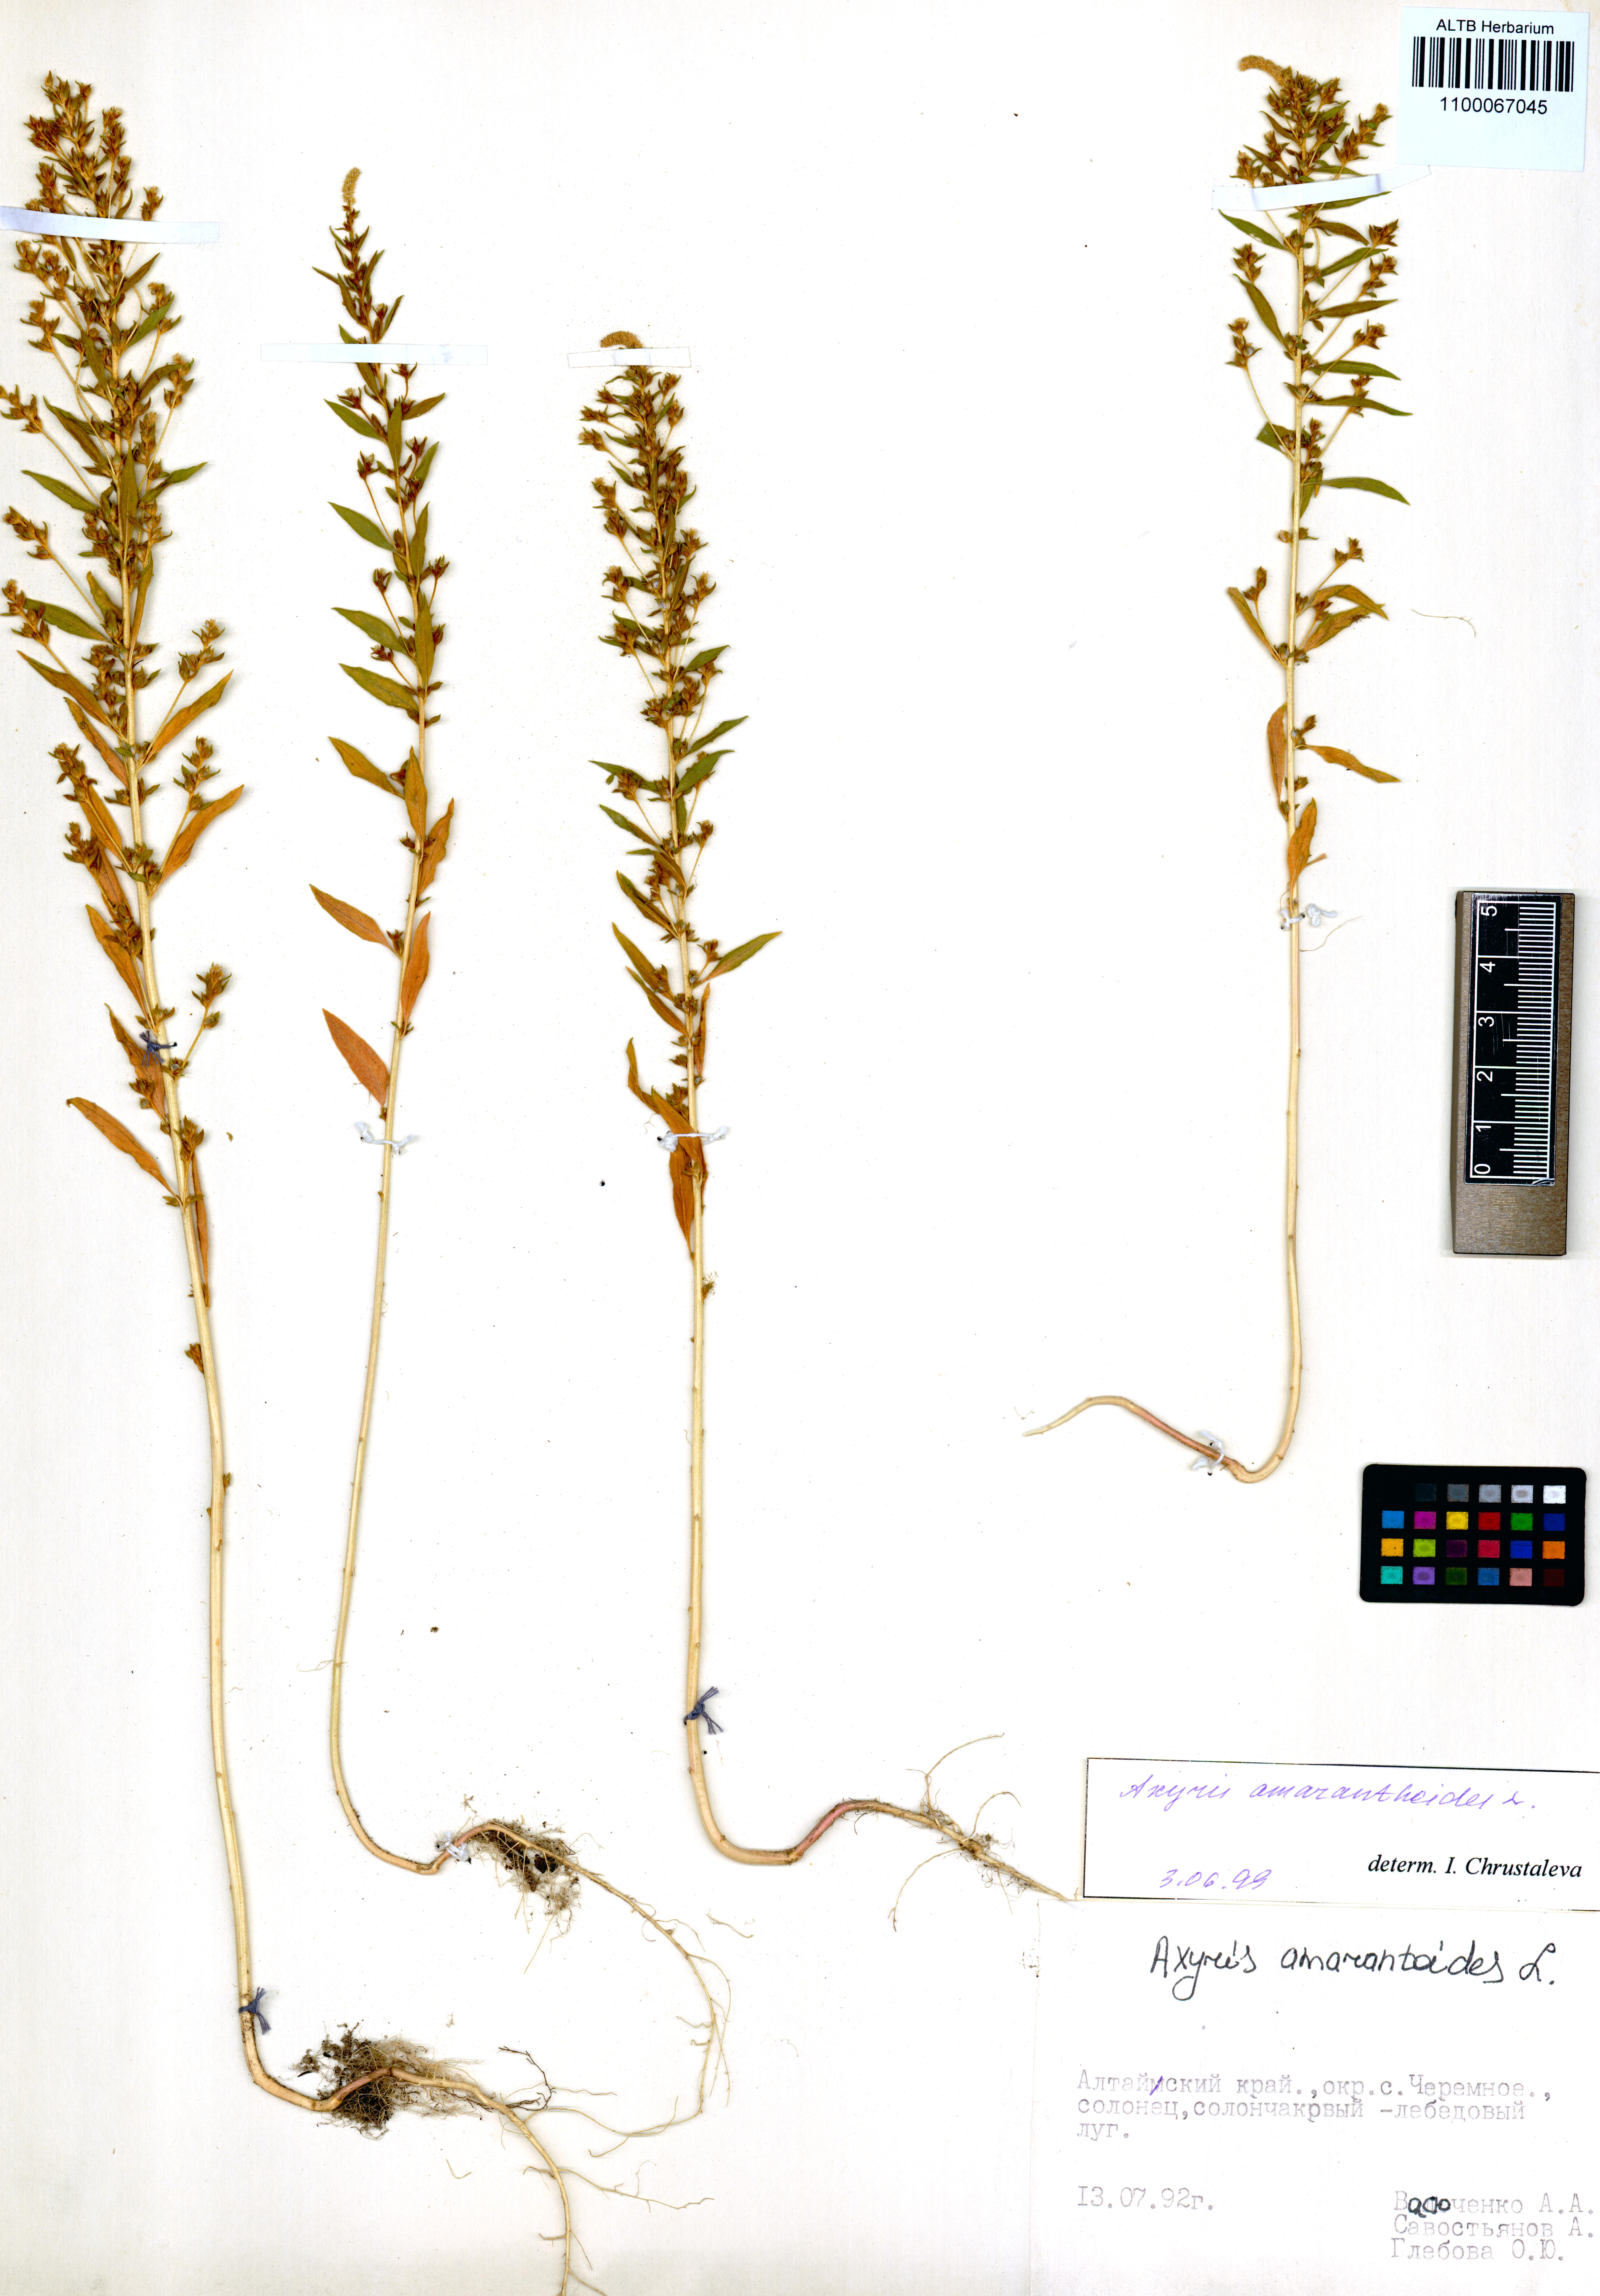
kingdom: Plantae
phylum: Tracheophyta
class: Magnoliopsida
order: Caryophyllales
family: Amaranthaceae
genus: Axyris
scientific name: Axyris amaranthoides
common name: Russian pigweed
